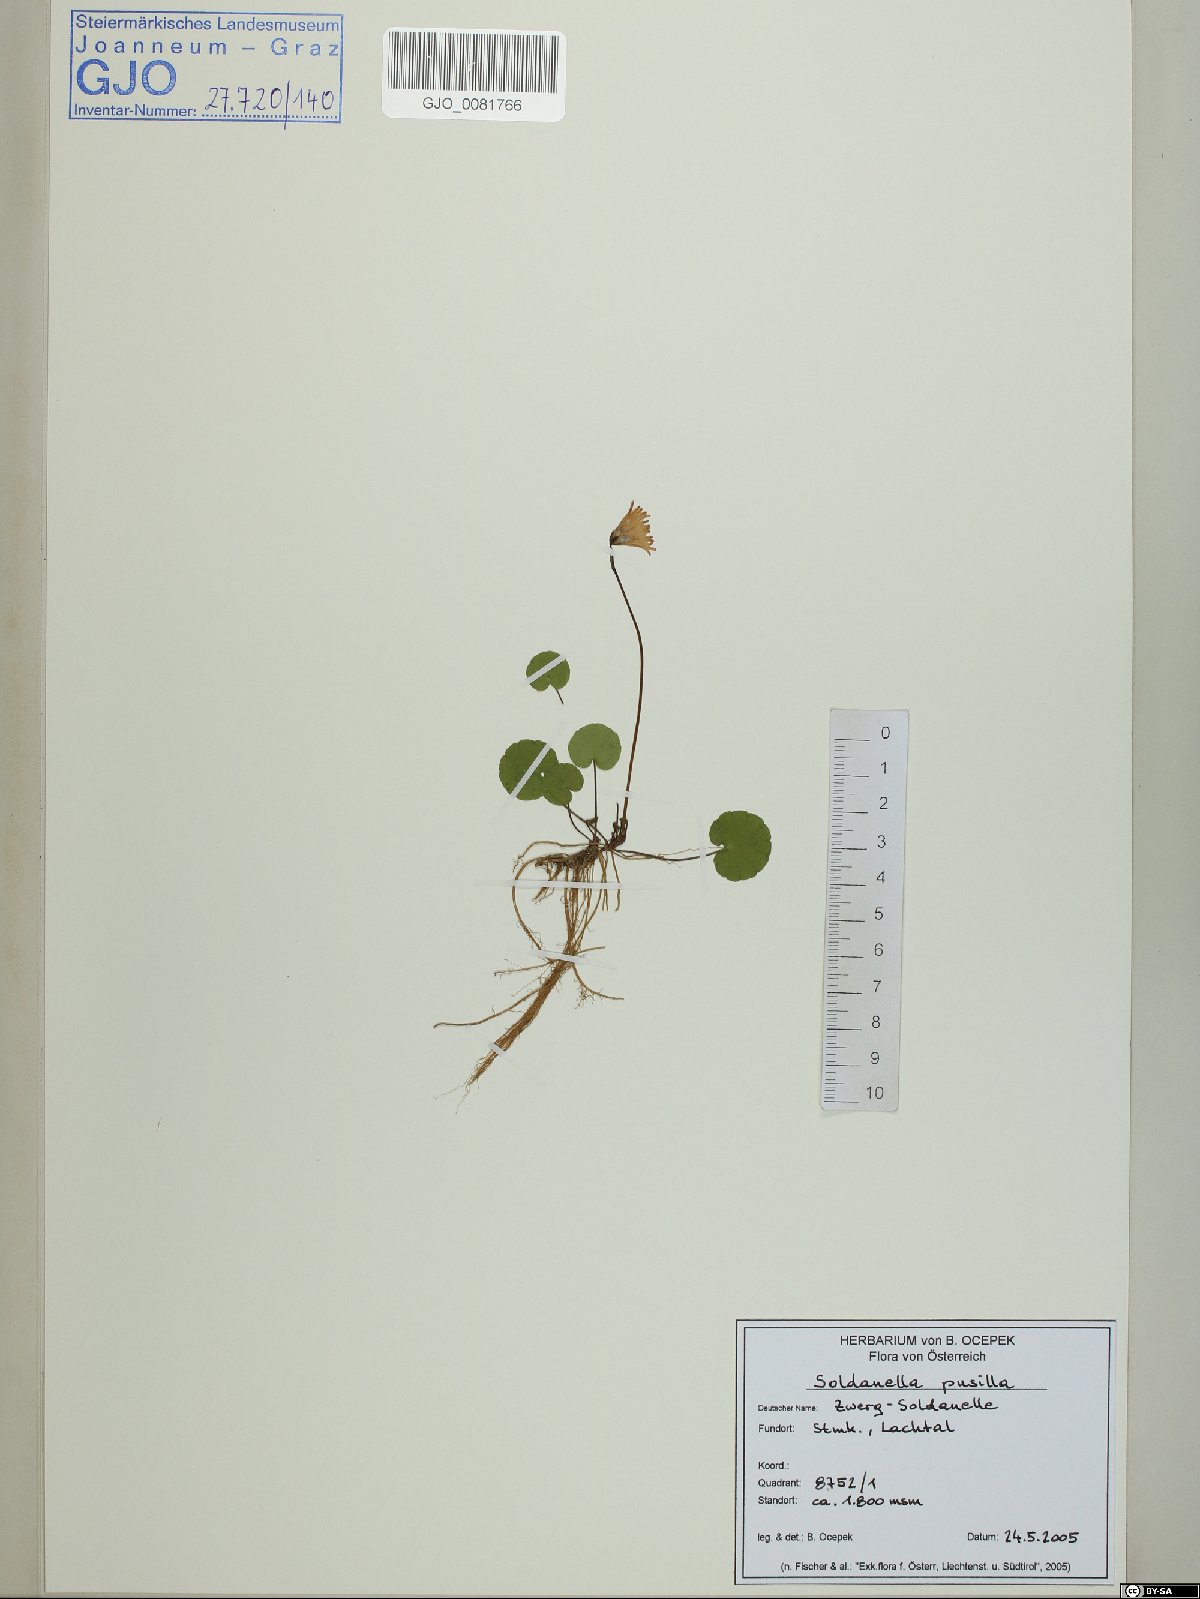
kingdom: Plantae
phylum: Tracheophyta
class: Magnoliopsida
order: Ericales
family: Primulaceae
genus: Soldanella
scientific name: Soldanella pusilla
